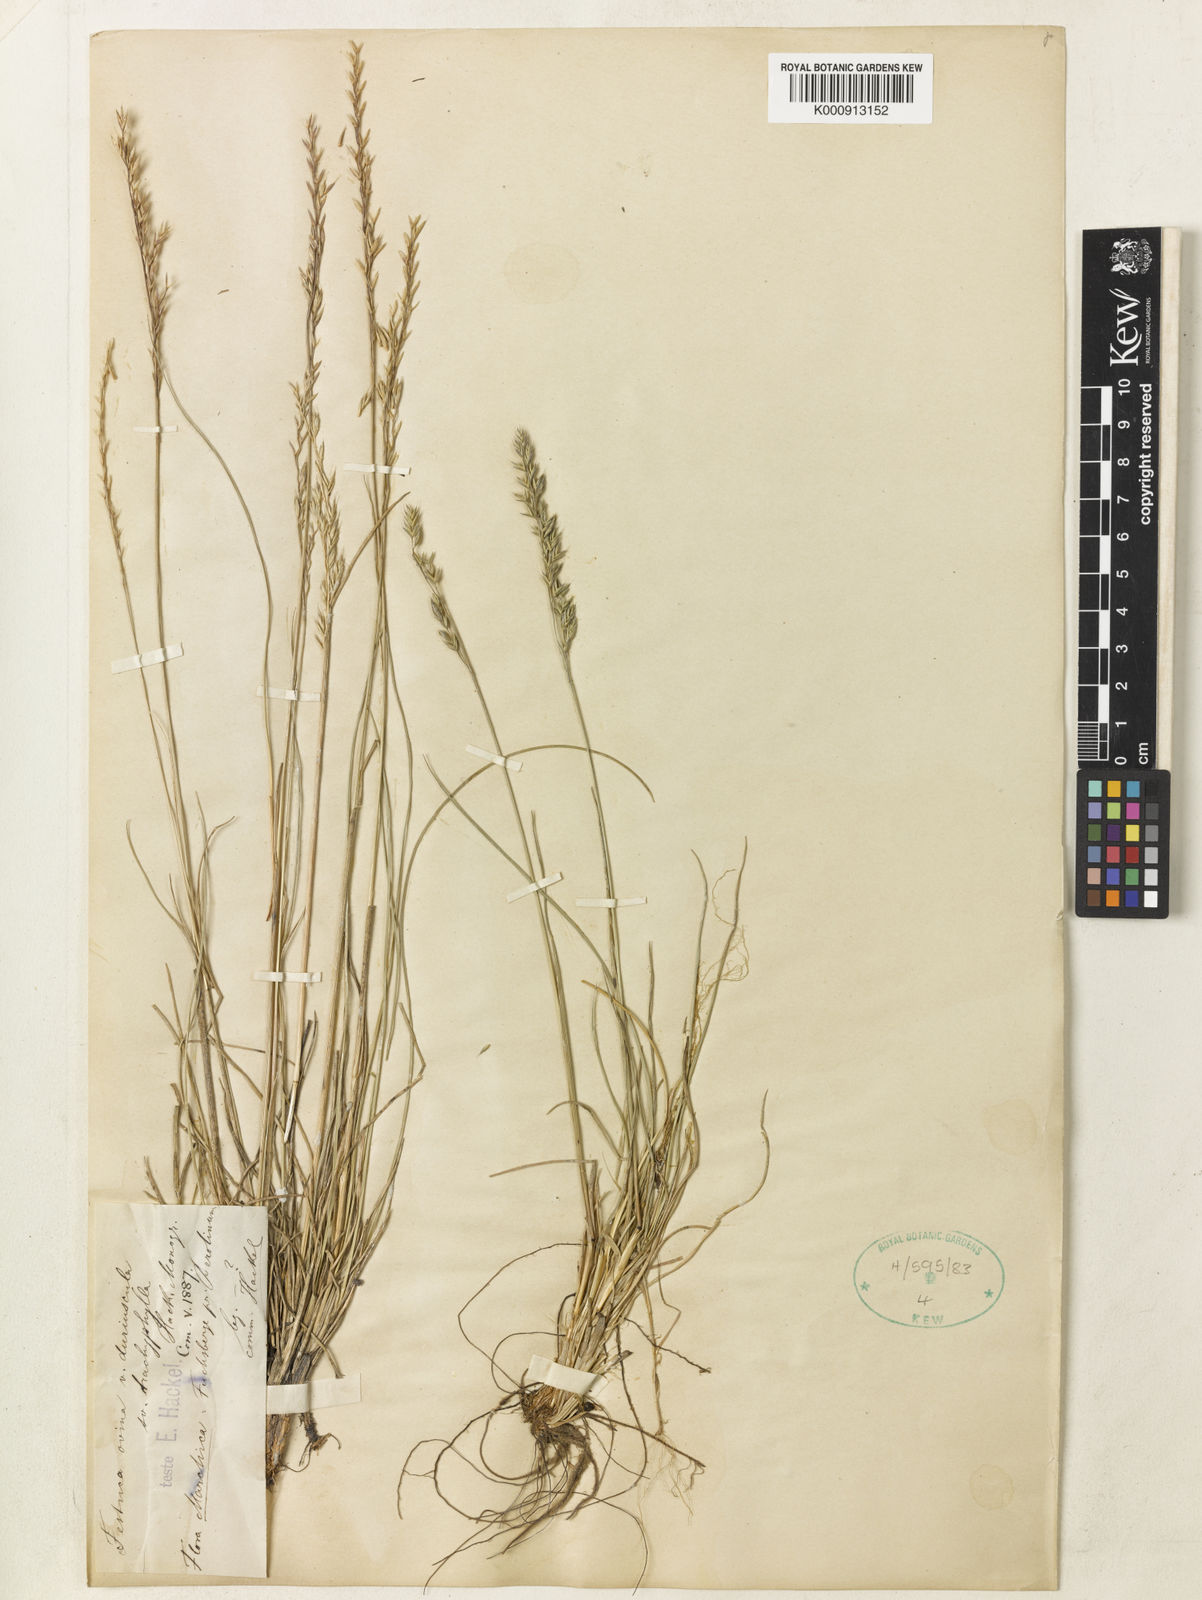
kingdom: Plantae
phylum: Tracheophyta
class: Liliopsida
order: Poales
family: Poaceae
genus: Festuca
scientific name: Festuca trachyphylla
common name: Hard fescue
